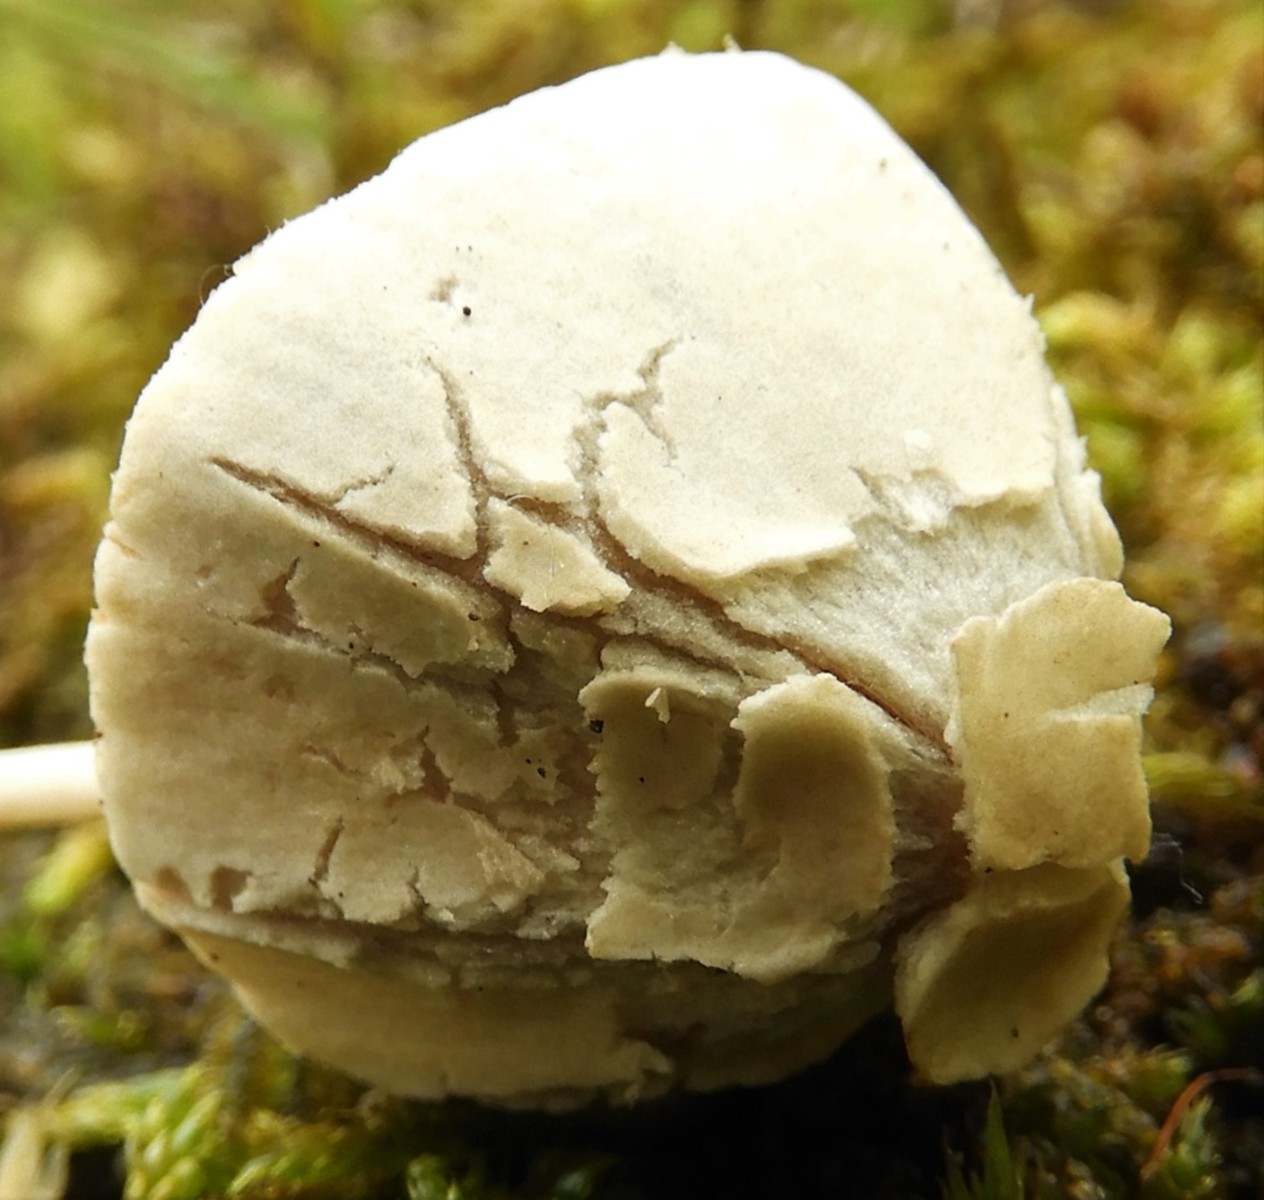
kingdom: Fungi
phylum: Basidiomycota
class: Agaricomycetes
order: Agaricales
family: Bolbitiaceae
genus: Conocybe
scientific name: Conocybe apala
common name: mælkehvid keglehat
